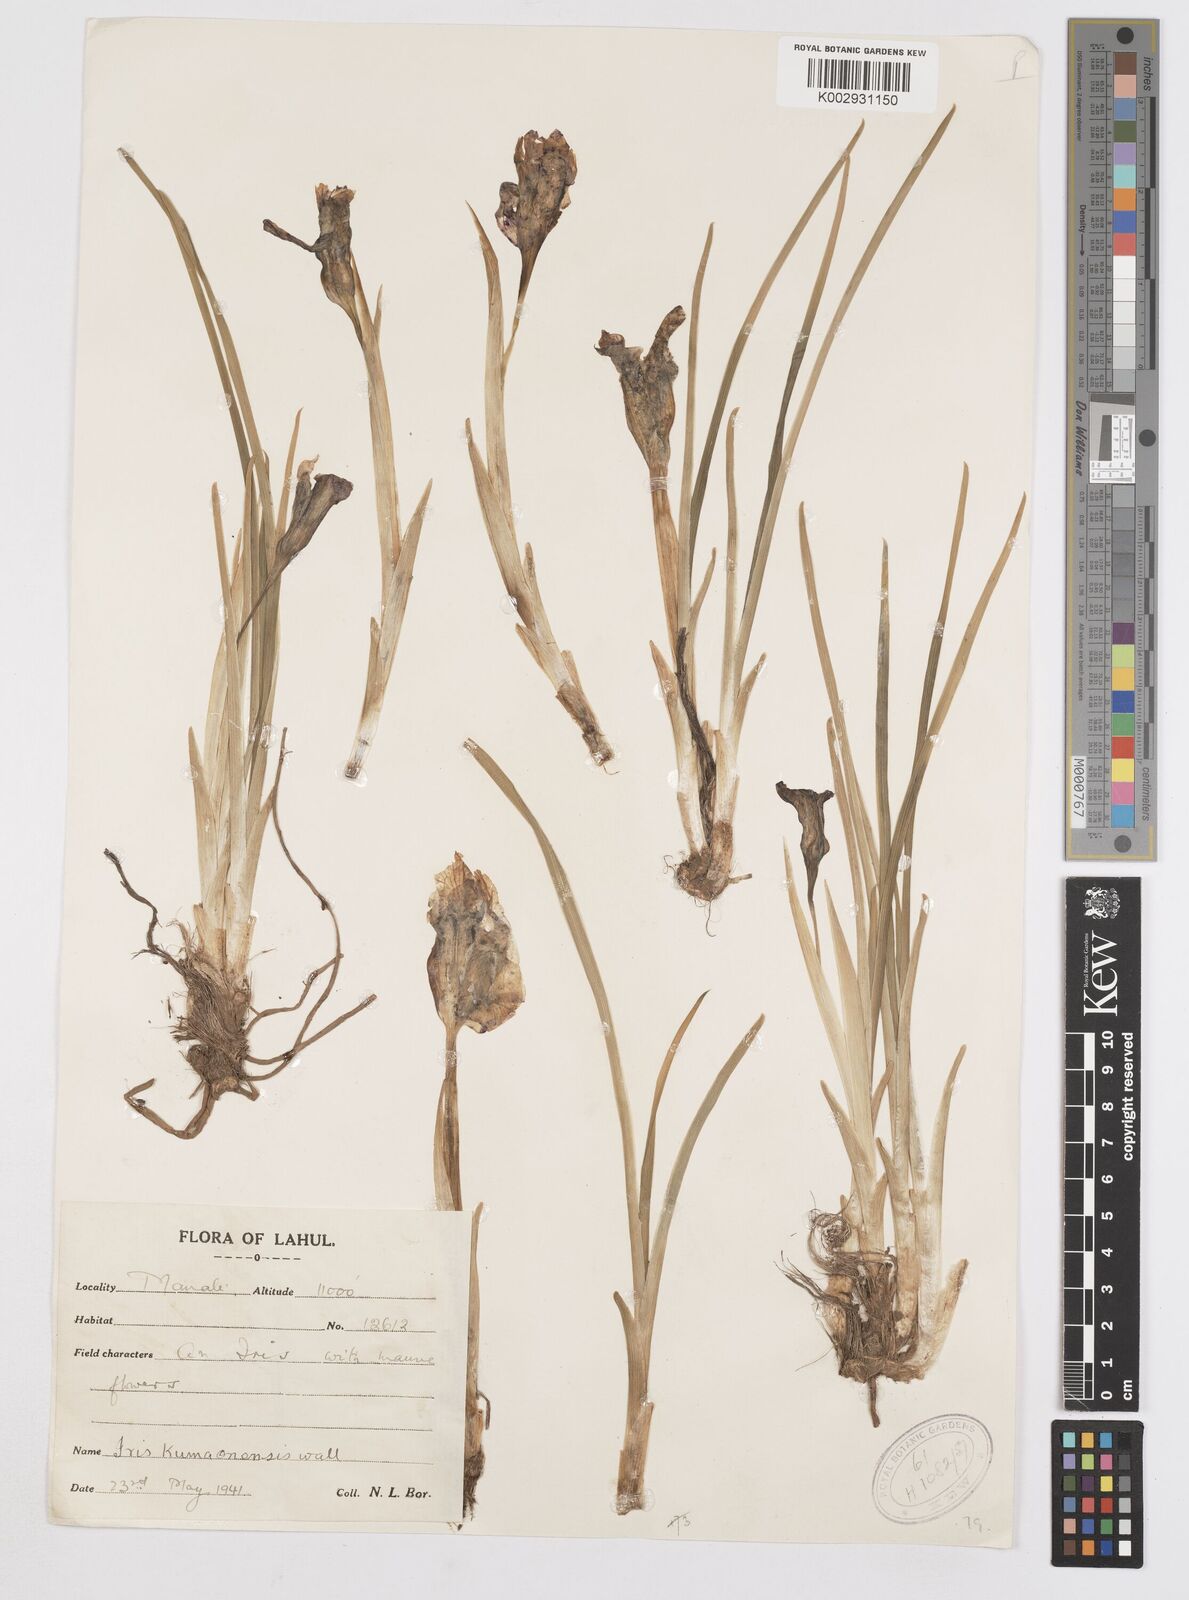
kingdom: Plantae
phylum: Tracheophyta
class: Liliopsida
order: Asparagales
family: Iridaceae
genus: Iris
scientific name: Iris kemaonensis
